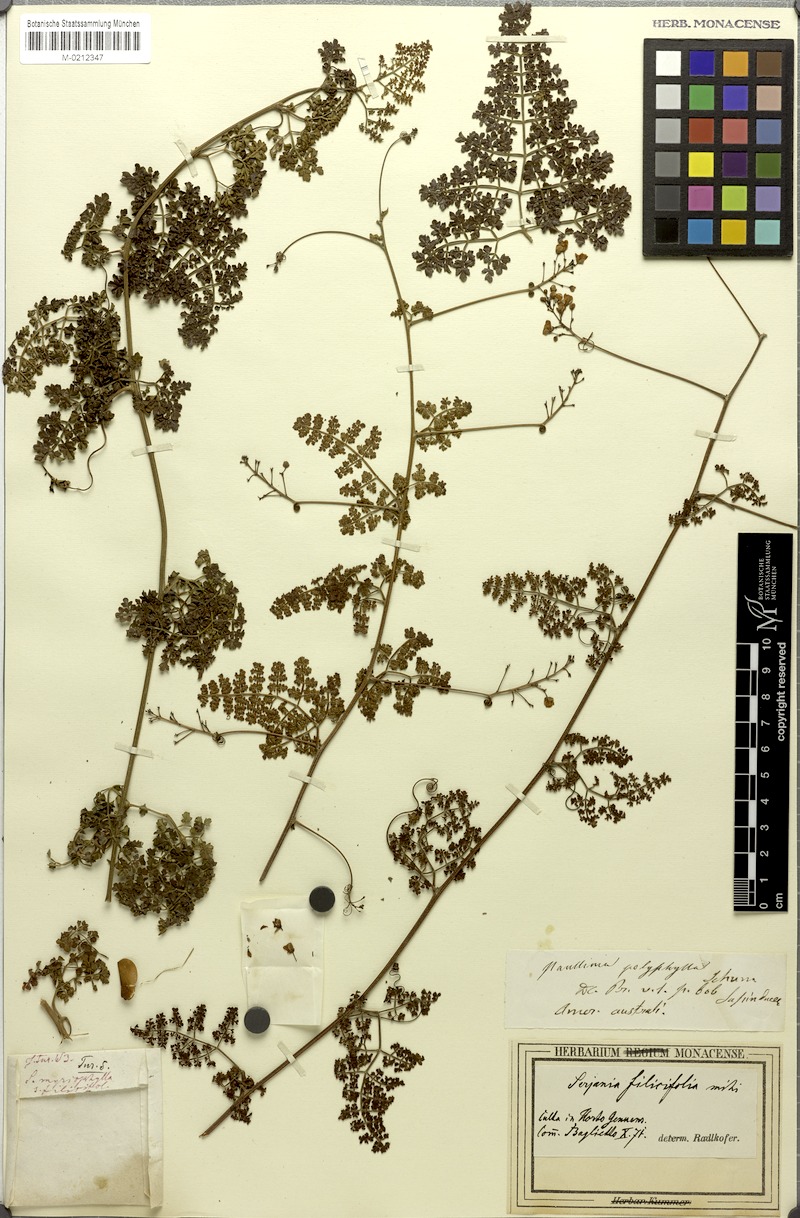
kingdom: Plantae
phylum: Tracheophyta
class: Magnoliopsida
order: Sapindales
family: Sapindaceae
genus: Serjania
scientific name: Serjania filicifolia
